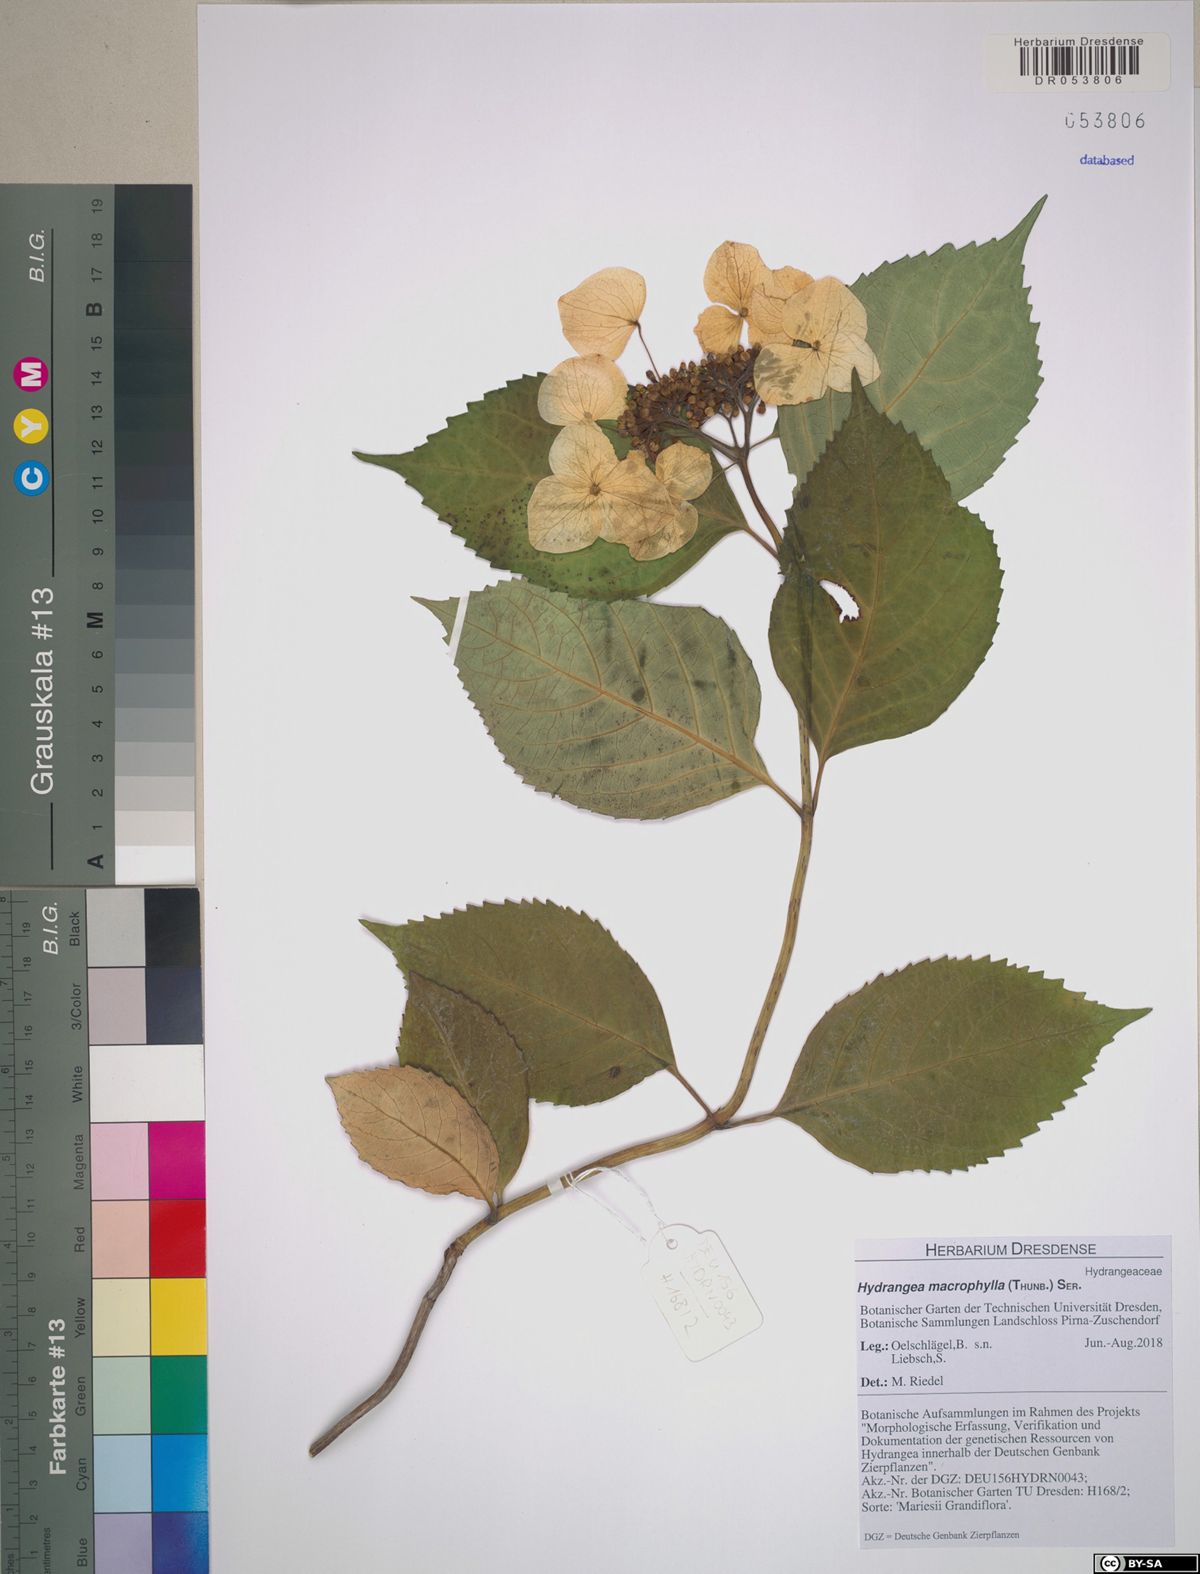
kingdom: Plantae
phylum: Tracheophyta
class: Magnoliopsida
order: Cornales
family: Hydrangeaceae
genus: Hydrangea
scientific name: Hydrangea macrophylla
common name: Hydrangea
